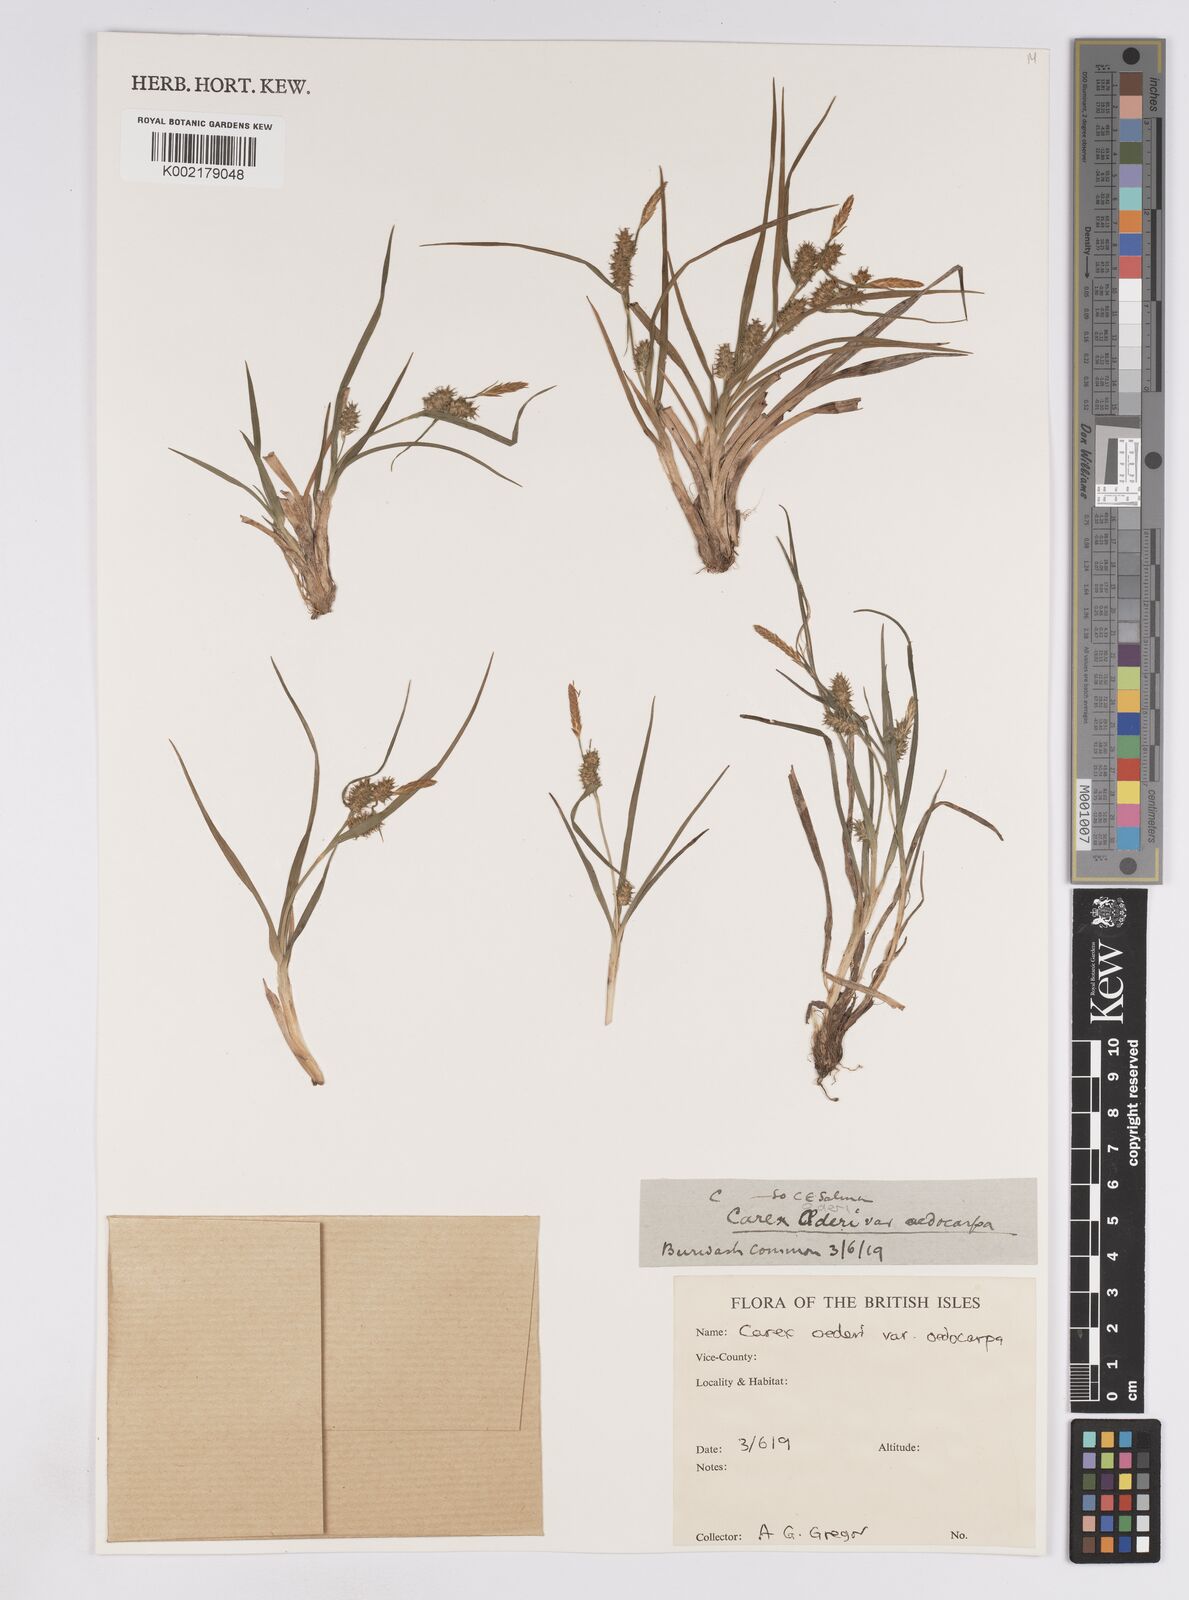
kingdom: Plantae
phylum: Tracheophyta
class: Liliopsida
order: Poales
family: Cyperaceae
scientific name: Cyperaceae
